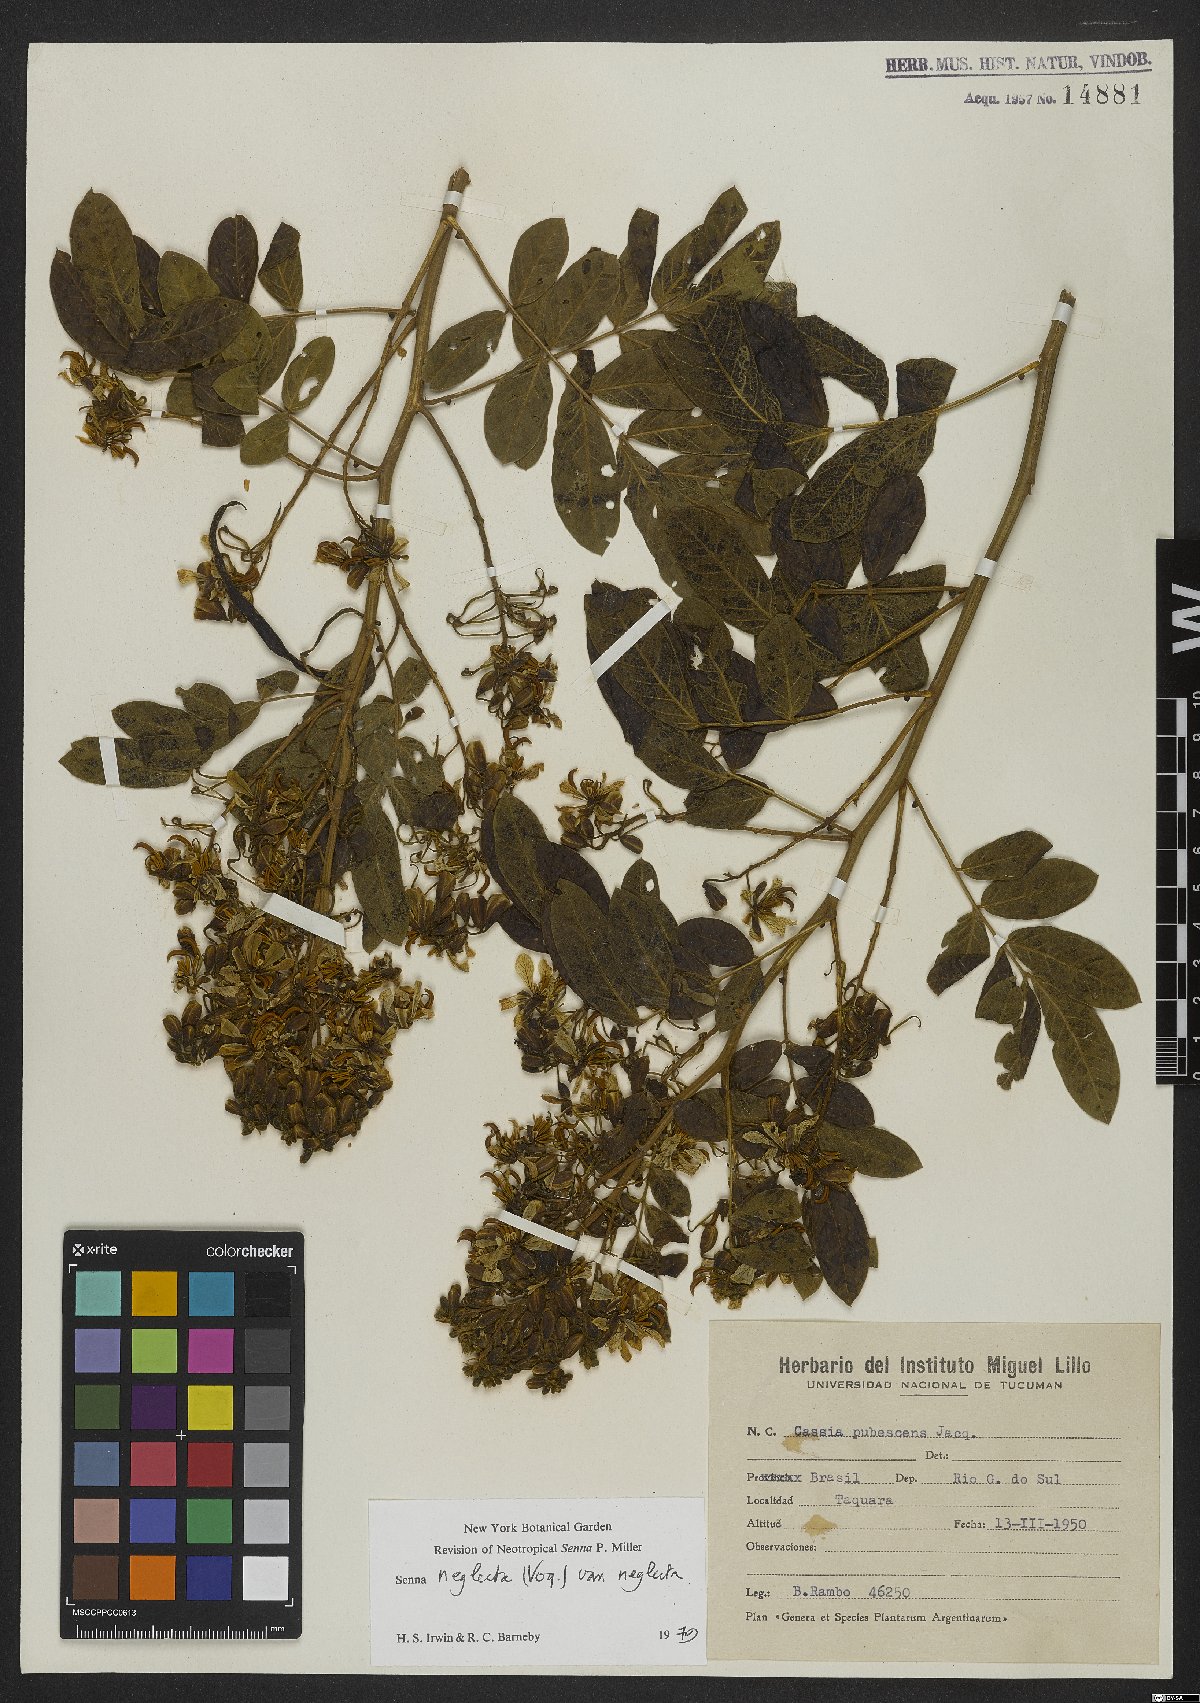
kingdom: Plantae
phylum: Tracheophyta
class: Magnoliopsida
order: Fabales
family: Fabaceae
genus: Senna
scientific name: Senna neglecta
